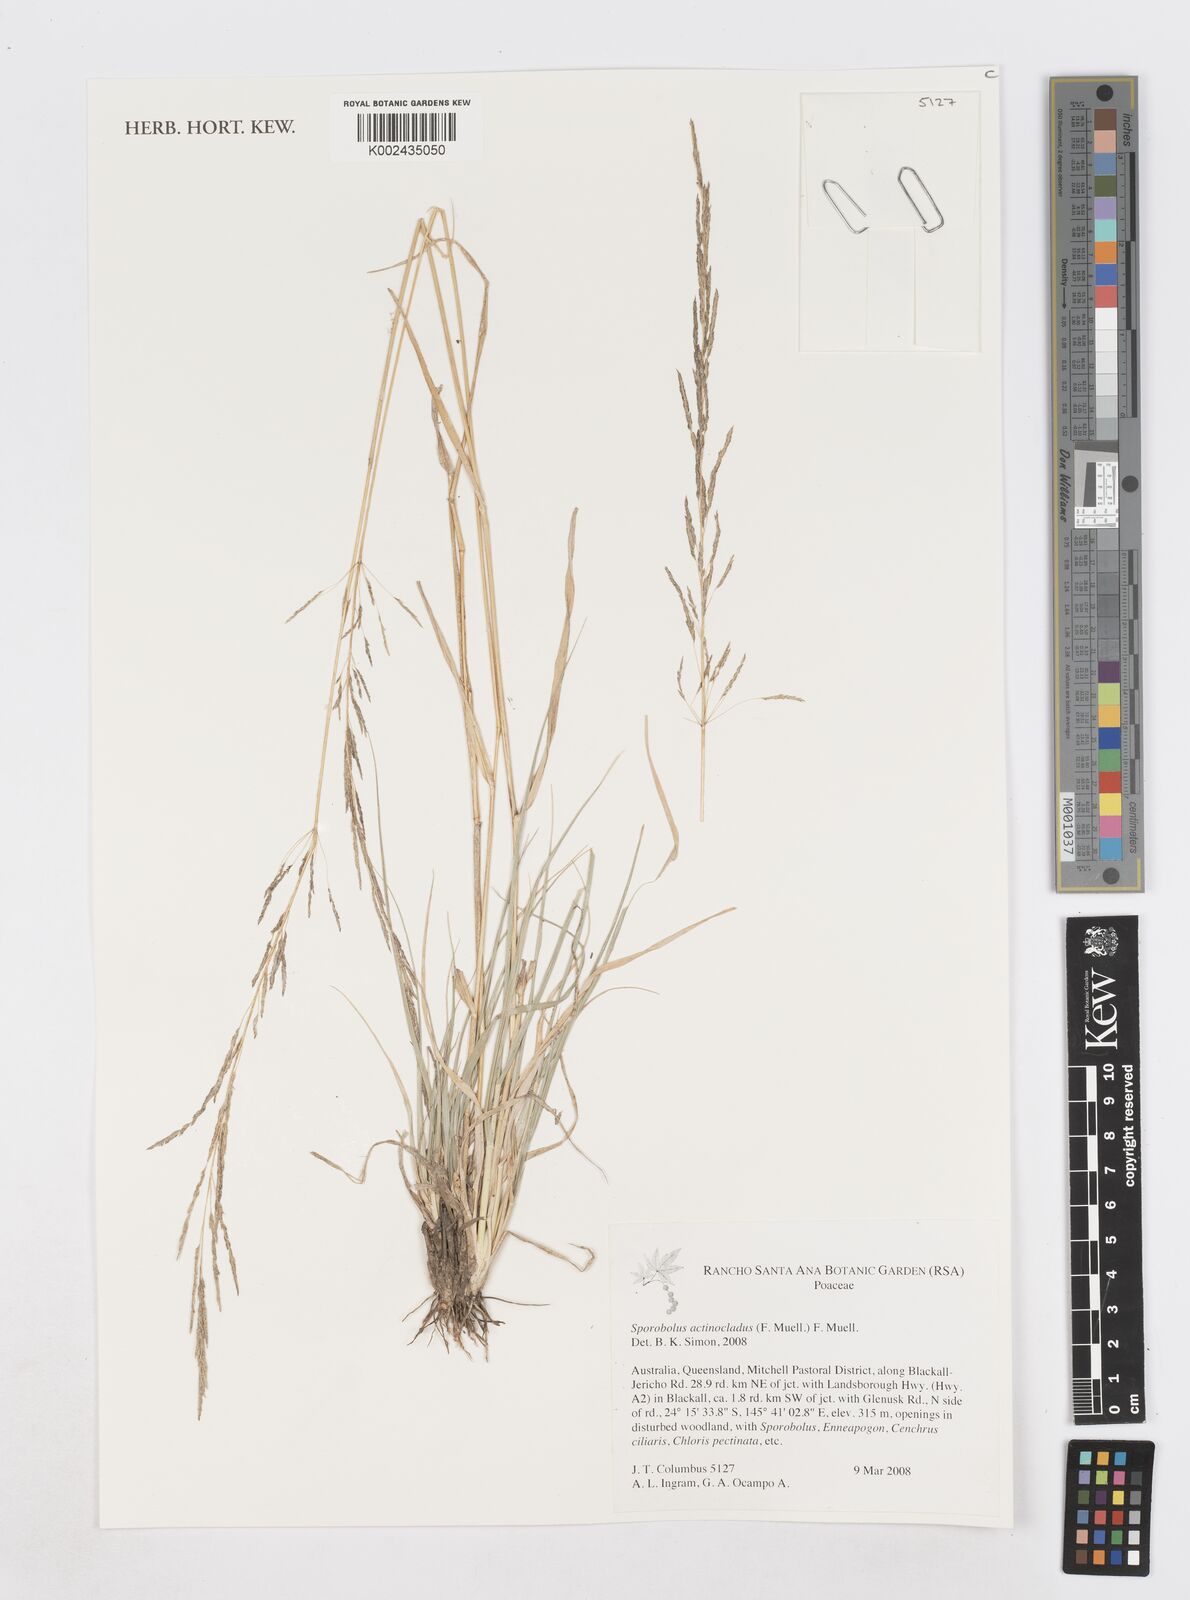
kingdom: Plantae
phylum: Tracheophyta
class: Liliopsida
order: Poales
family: Poaceae
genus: Sporobolus
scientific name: Sporobolus actinocladus
